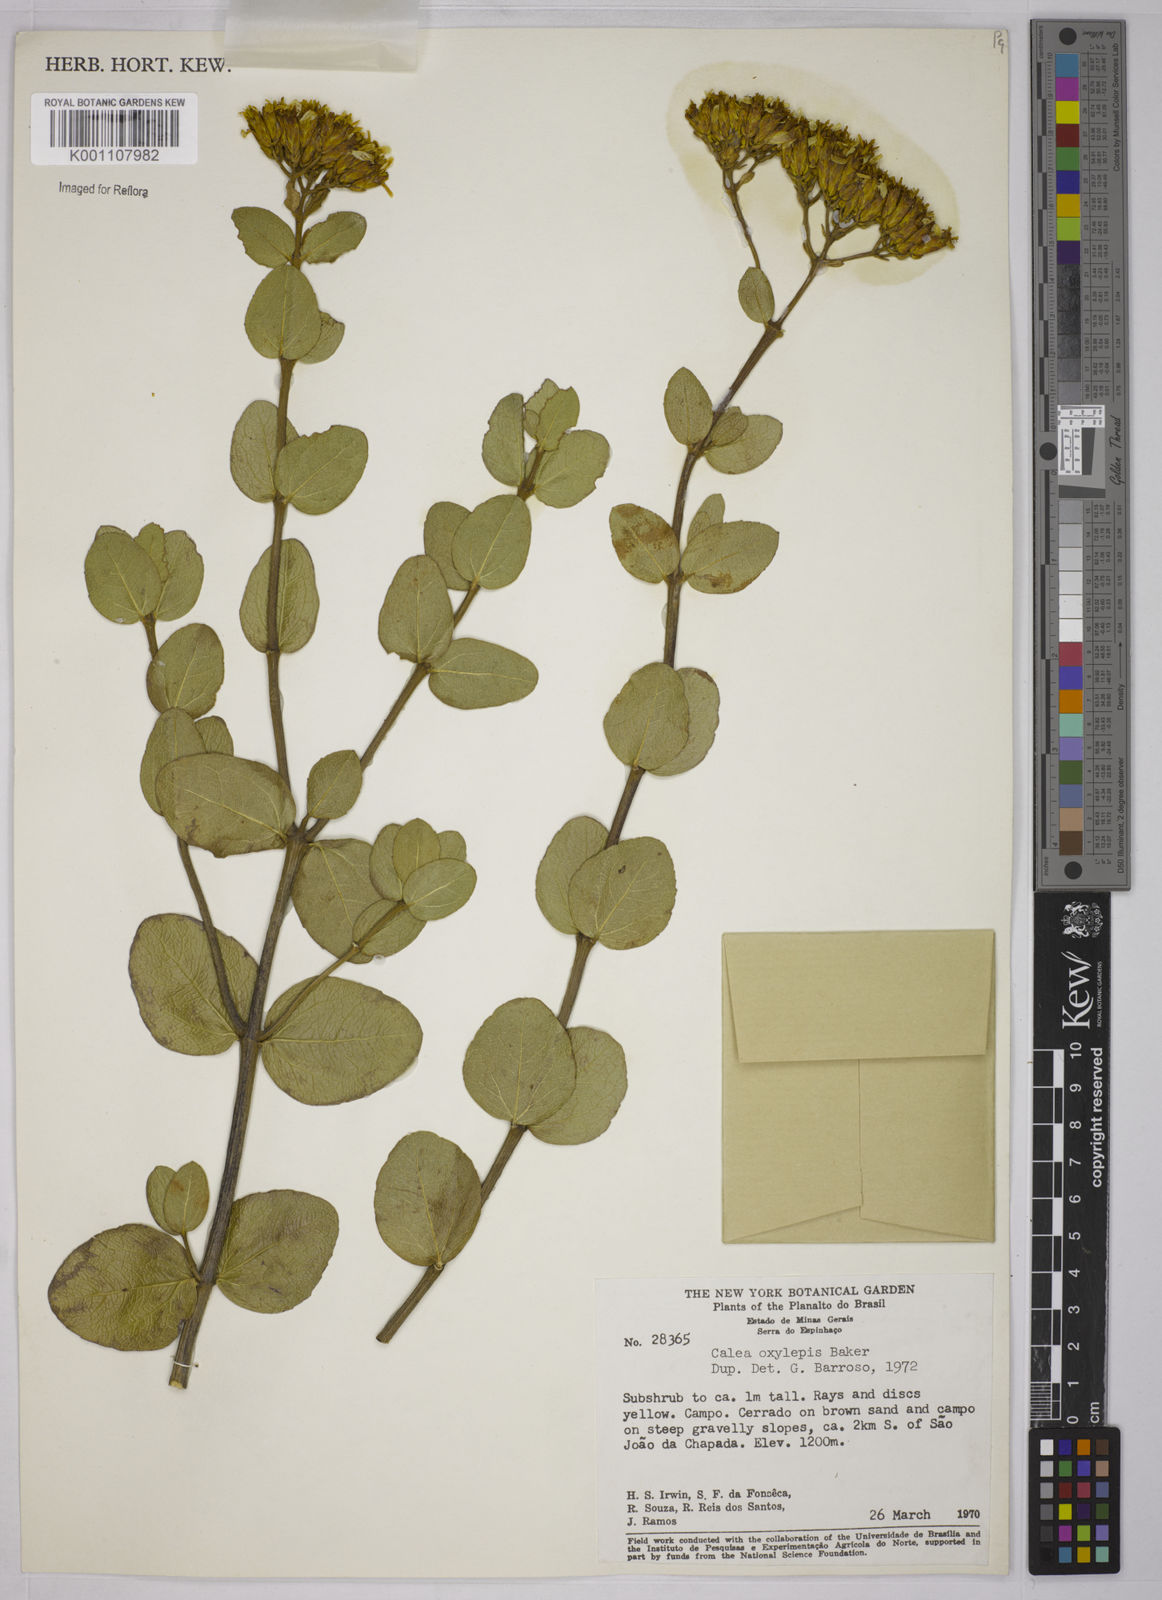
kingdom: Plantae
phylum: Tracheophyta
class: Magnoliopsida
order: Asterales
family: Asteraceae
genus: Calea
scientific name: Calea oxylepis
